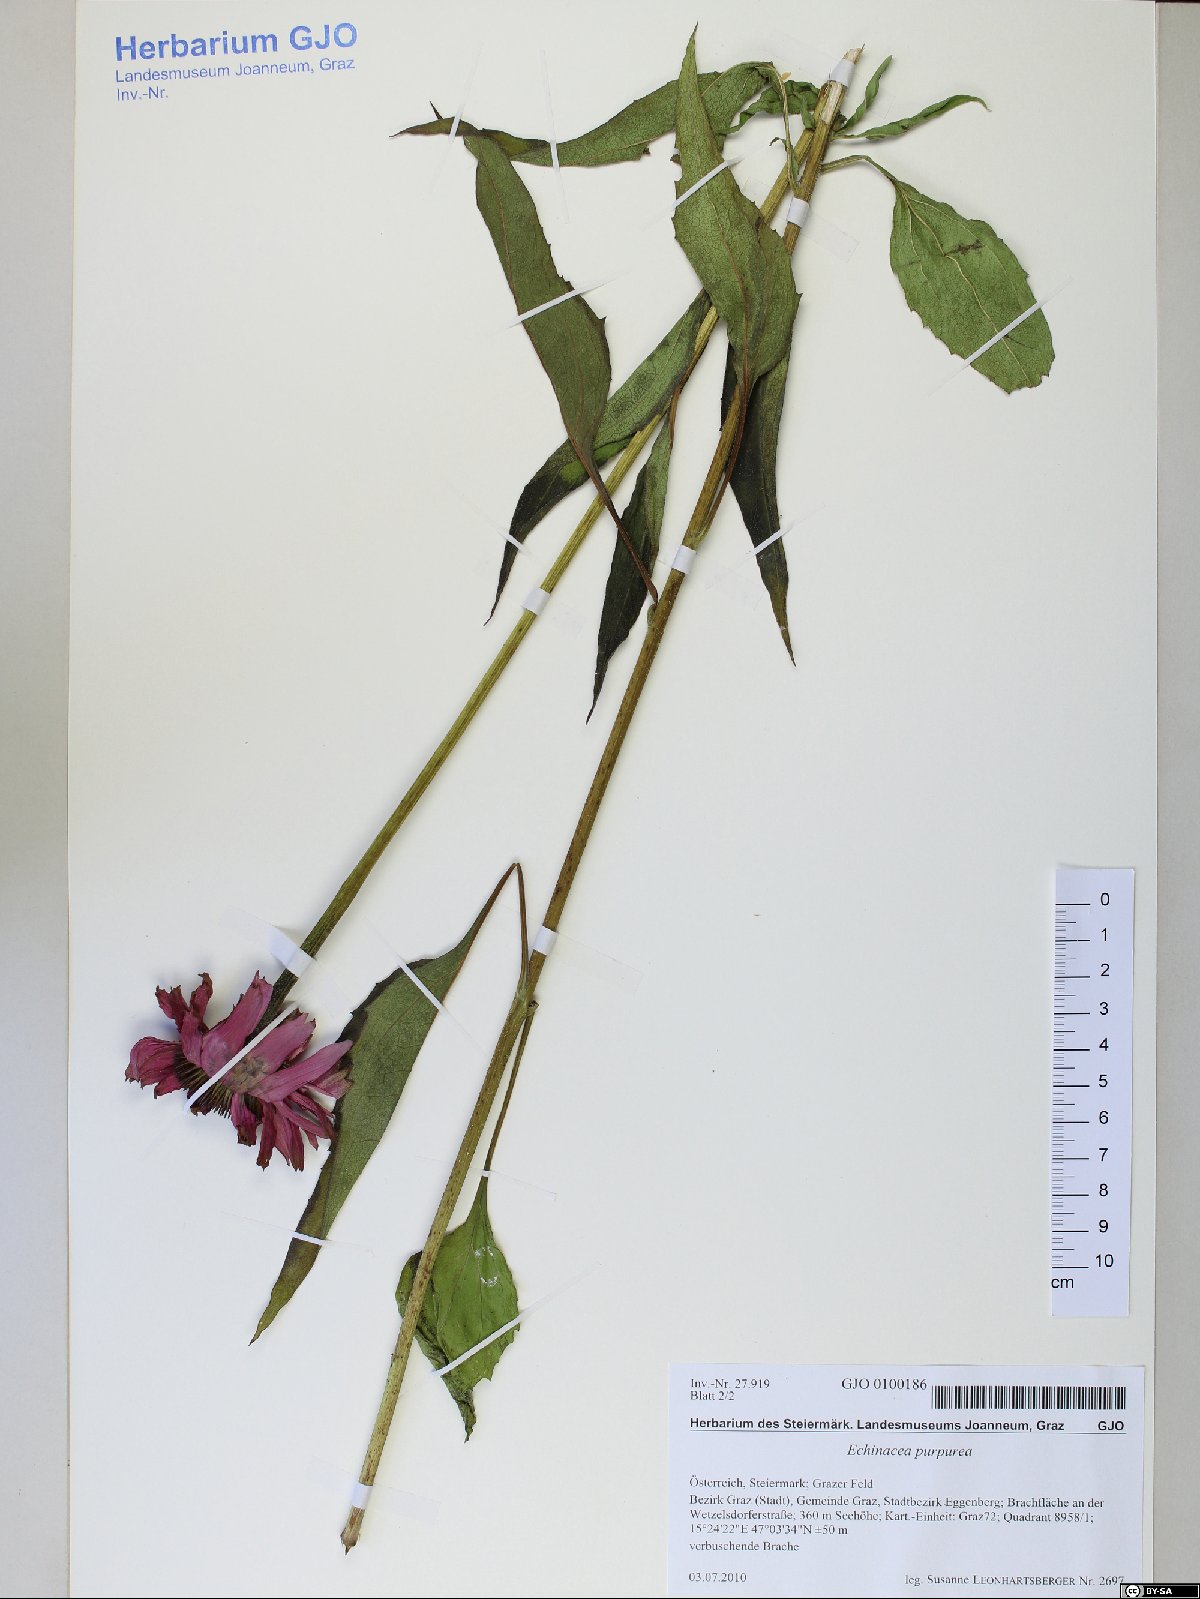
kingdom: Plantae
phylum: Tracheophyta
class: Magnoliopsida
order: Asterales
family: Asteraceae
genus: Echinacea
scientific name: Echinacea purpurea
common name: Broad-leaved purple coneflower
